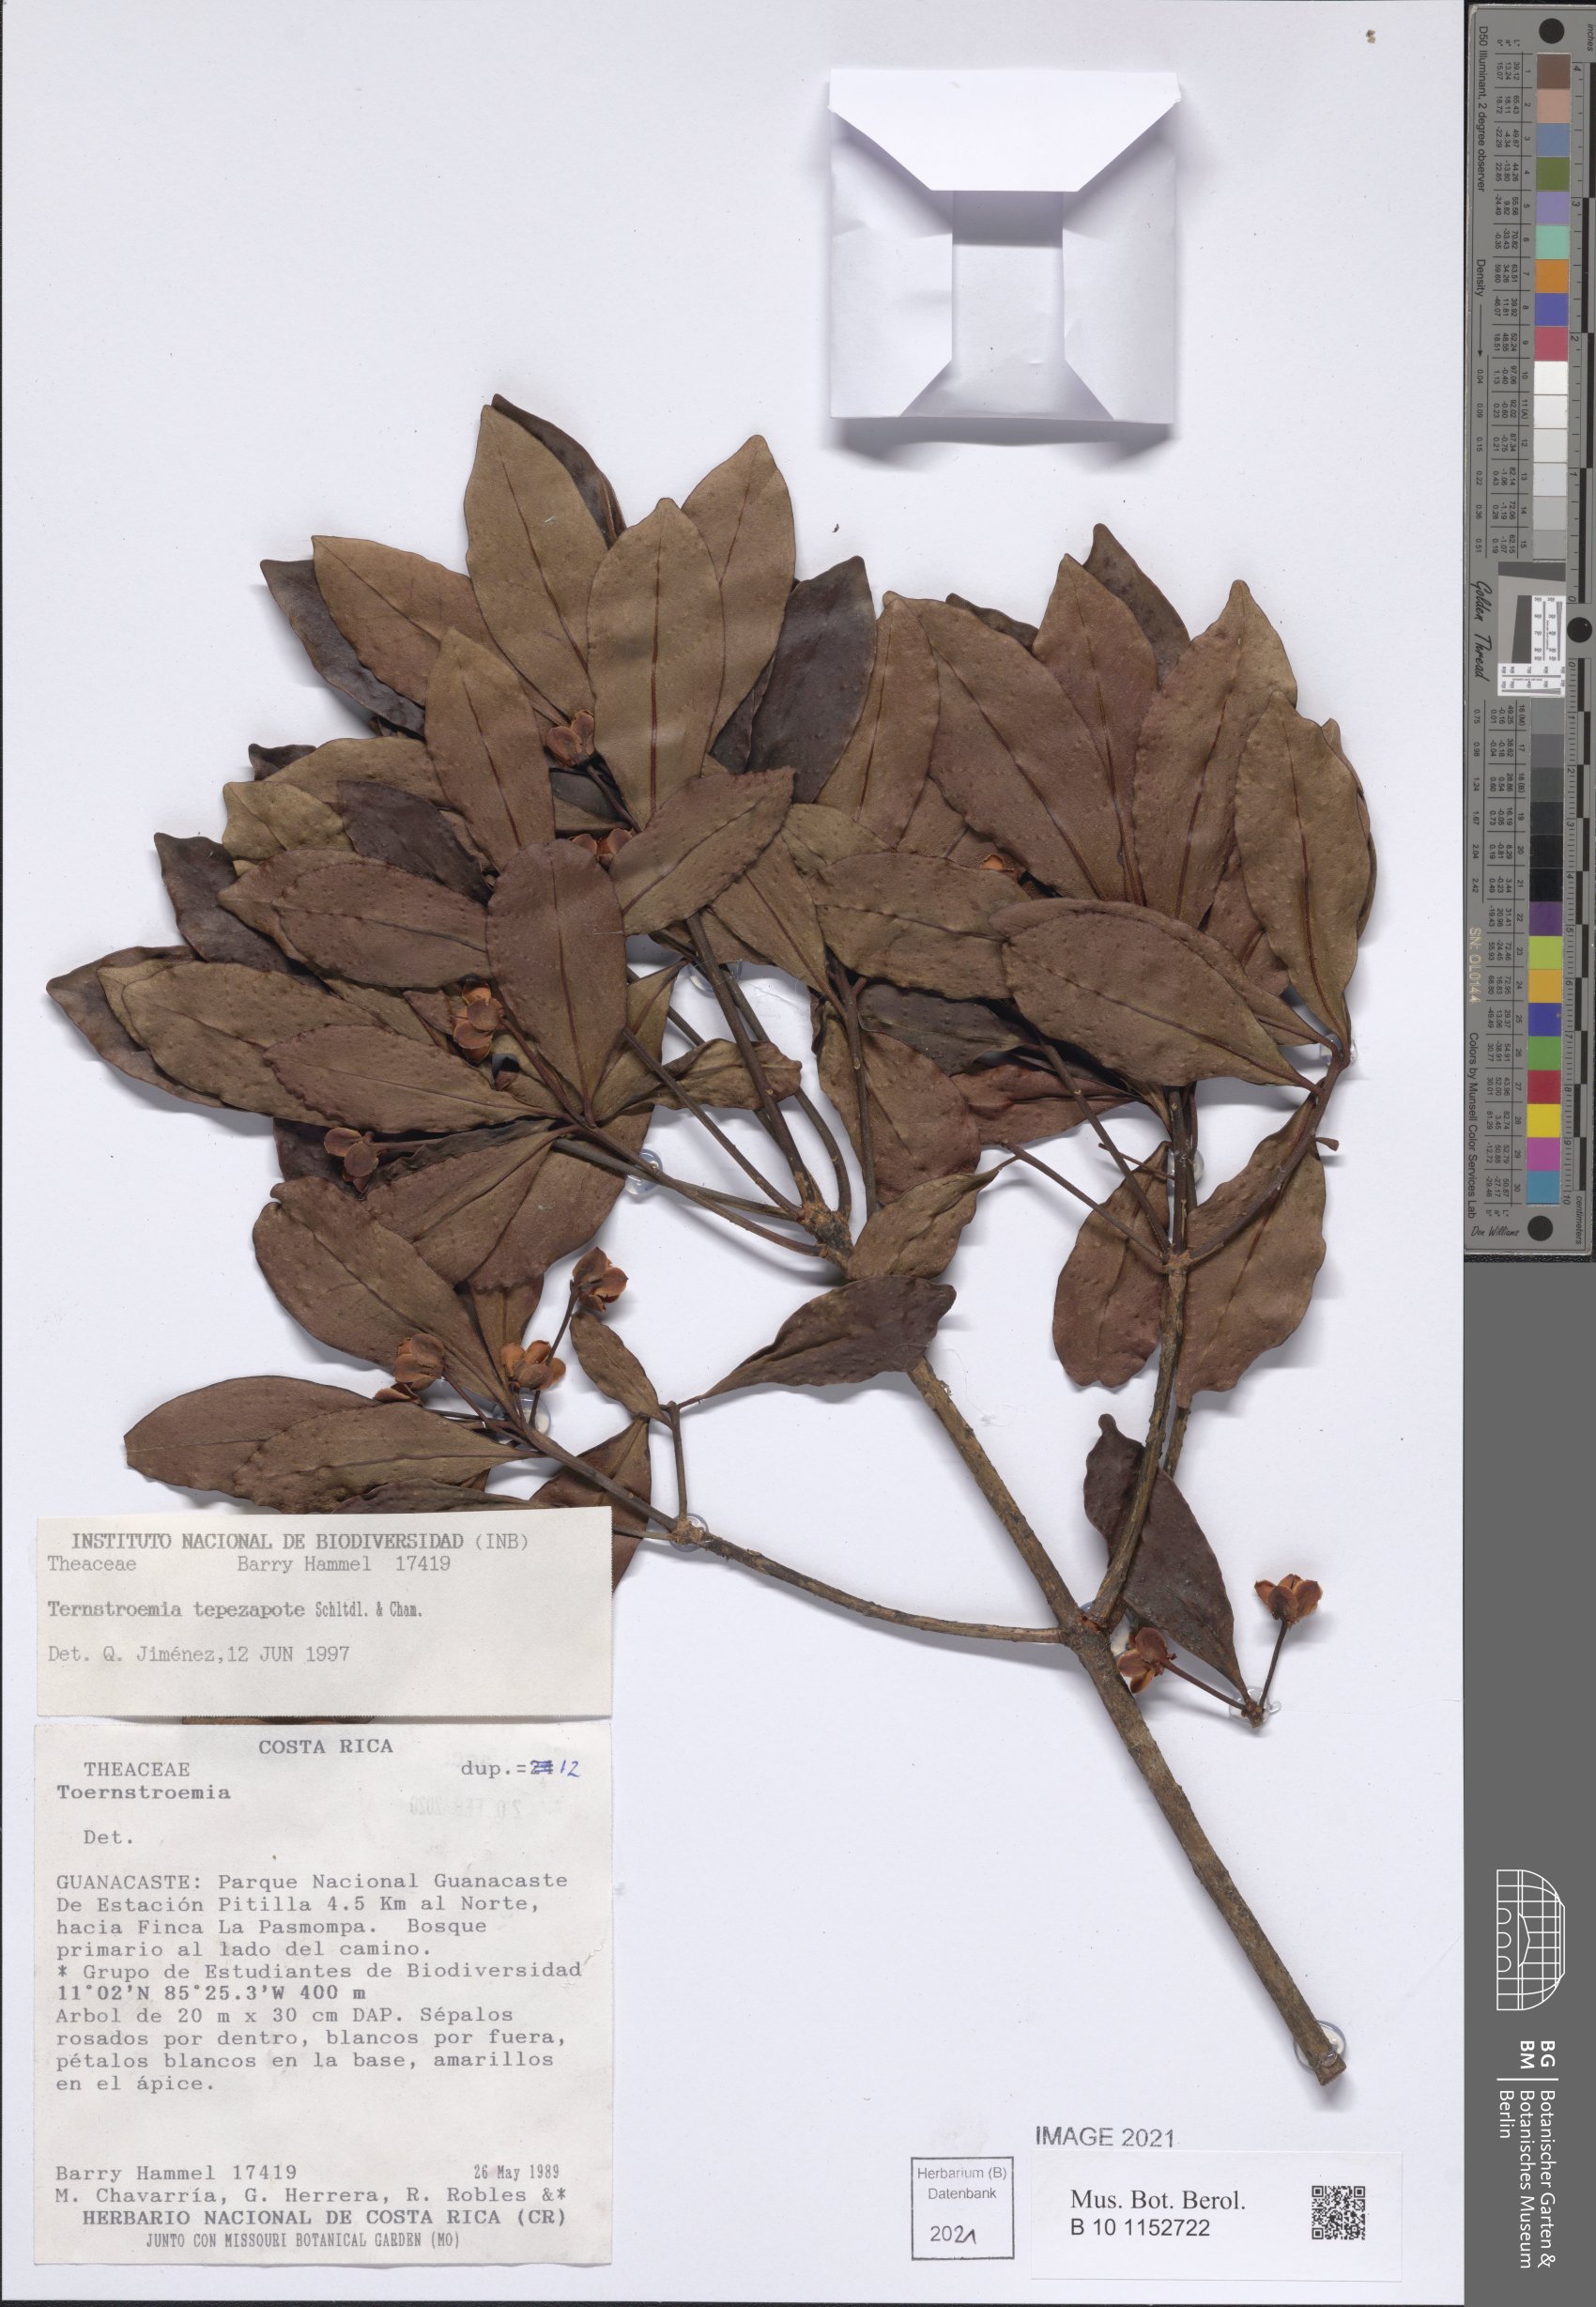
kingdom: Plantae
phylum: Tracheophyta
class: Magnoliopsida
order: Ericales
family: Pentaphylacaceae
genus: Ternstroemia
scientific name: Ternstroemia tepezapote
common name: Copey vera
